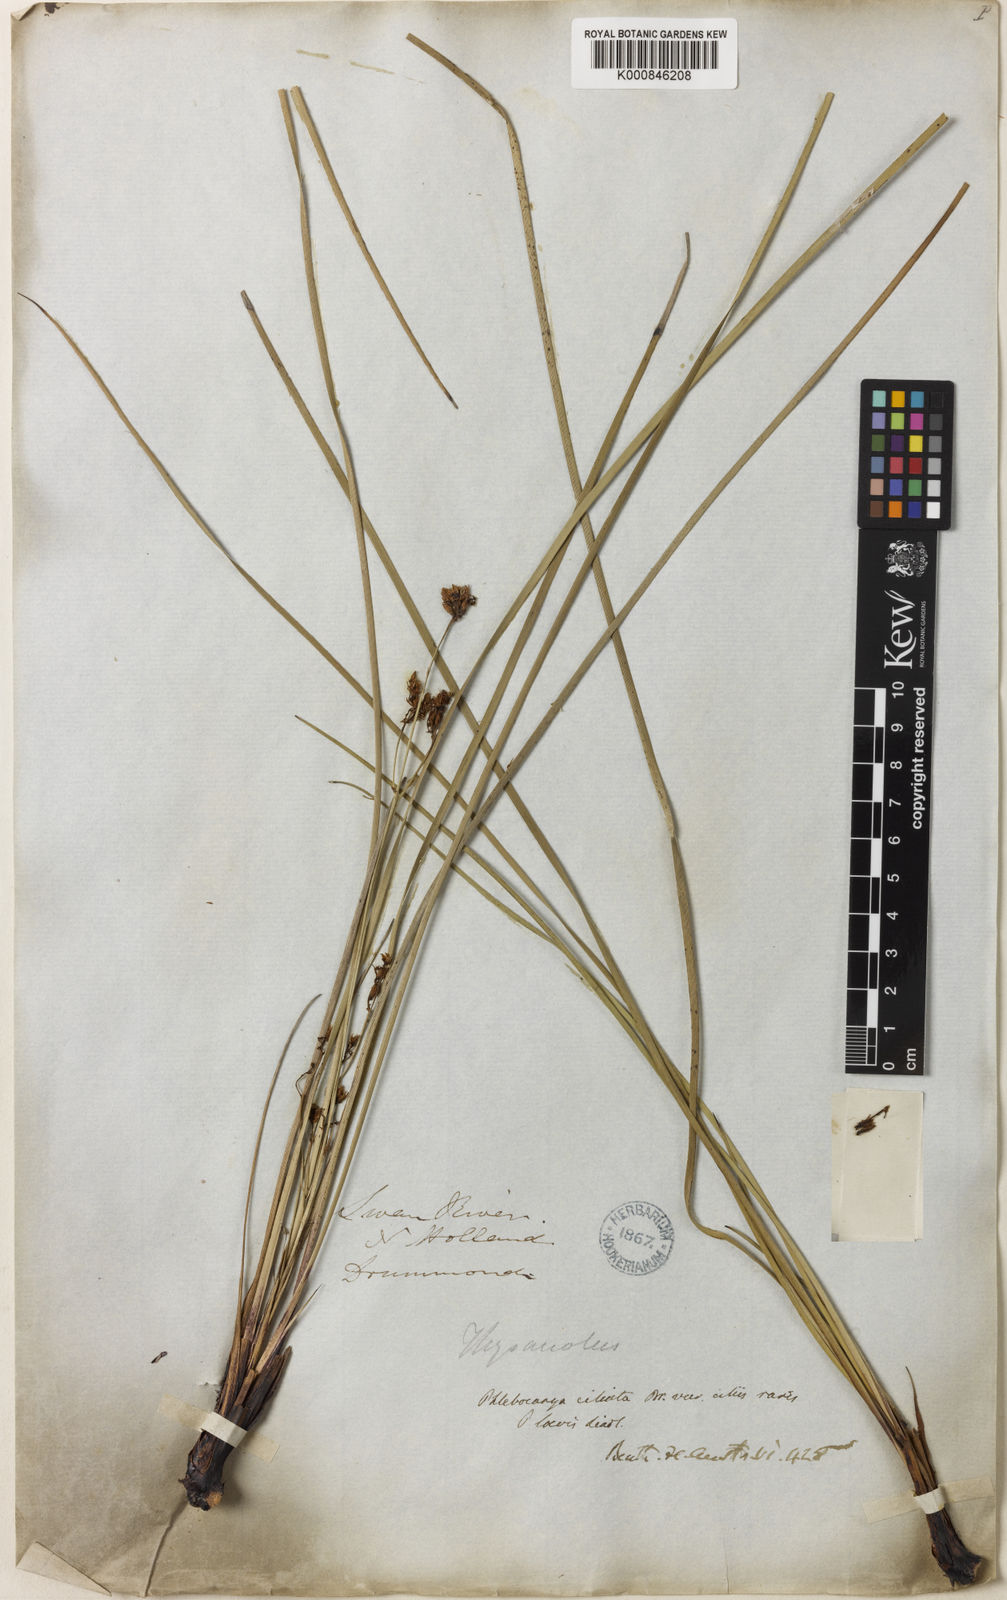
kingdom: Plantae
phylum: Tracheophyta
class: Liliopsida
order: Commelinales
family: Haemodoraceae
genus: Phlebocarya
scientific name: Phlebocarya ciliata
